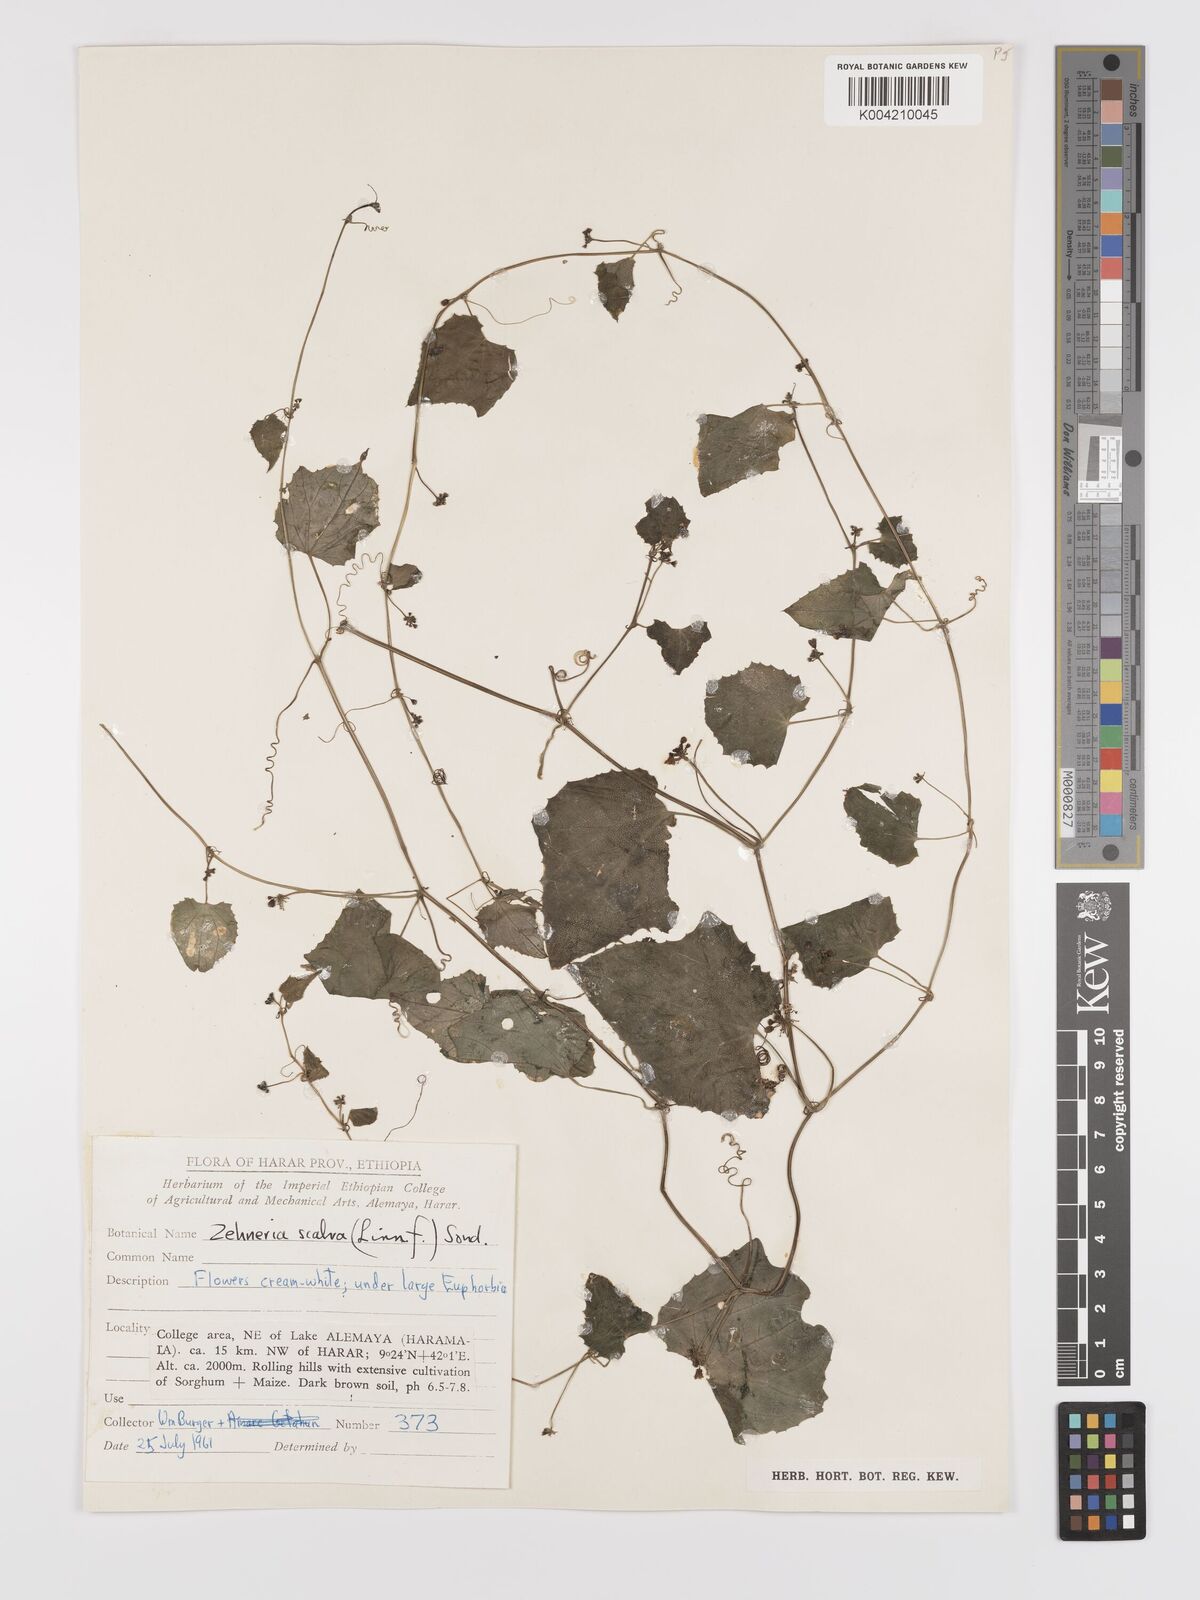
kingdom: Plantae
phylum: Tracheophyta
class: Magnoliopsida
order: Cucurbitales
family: Cucurbitaceae
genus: Zehneria
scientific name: Zehneria scabra
